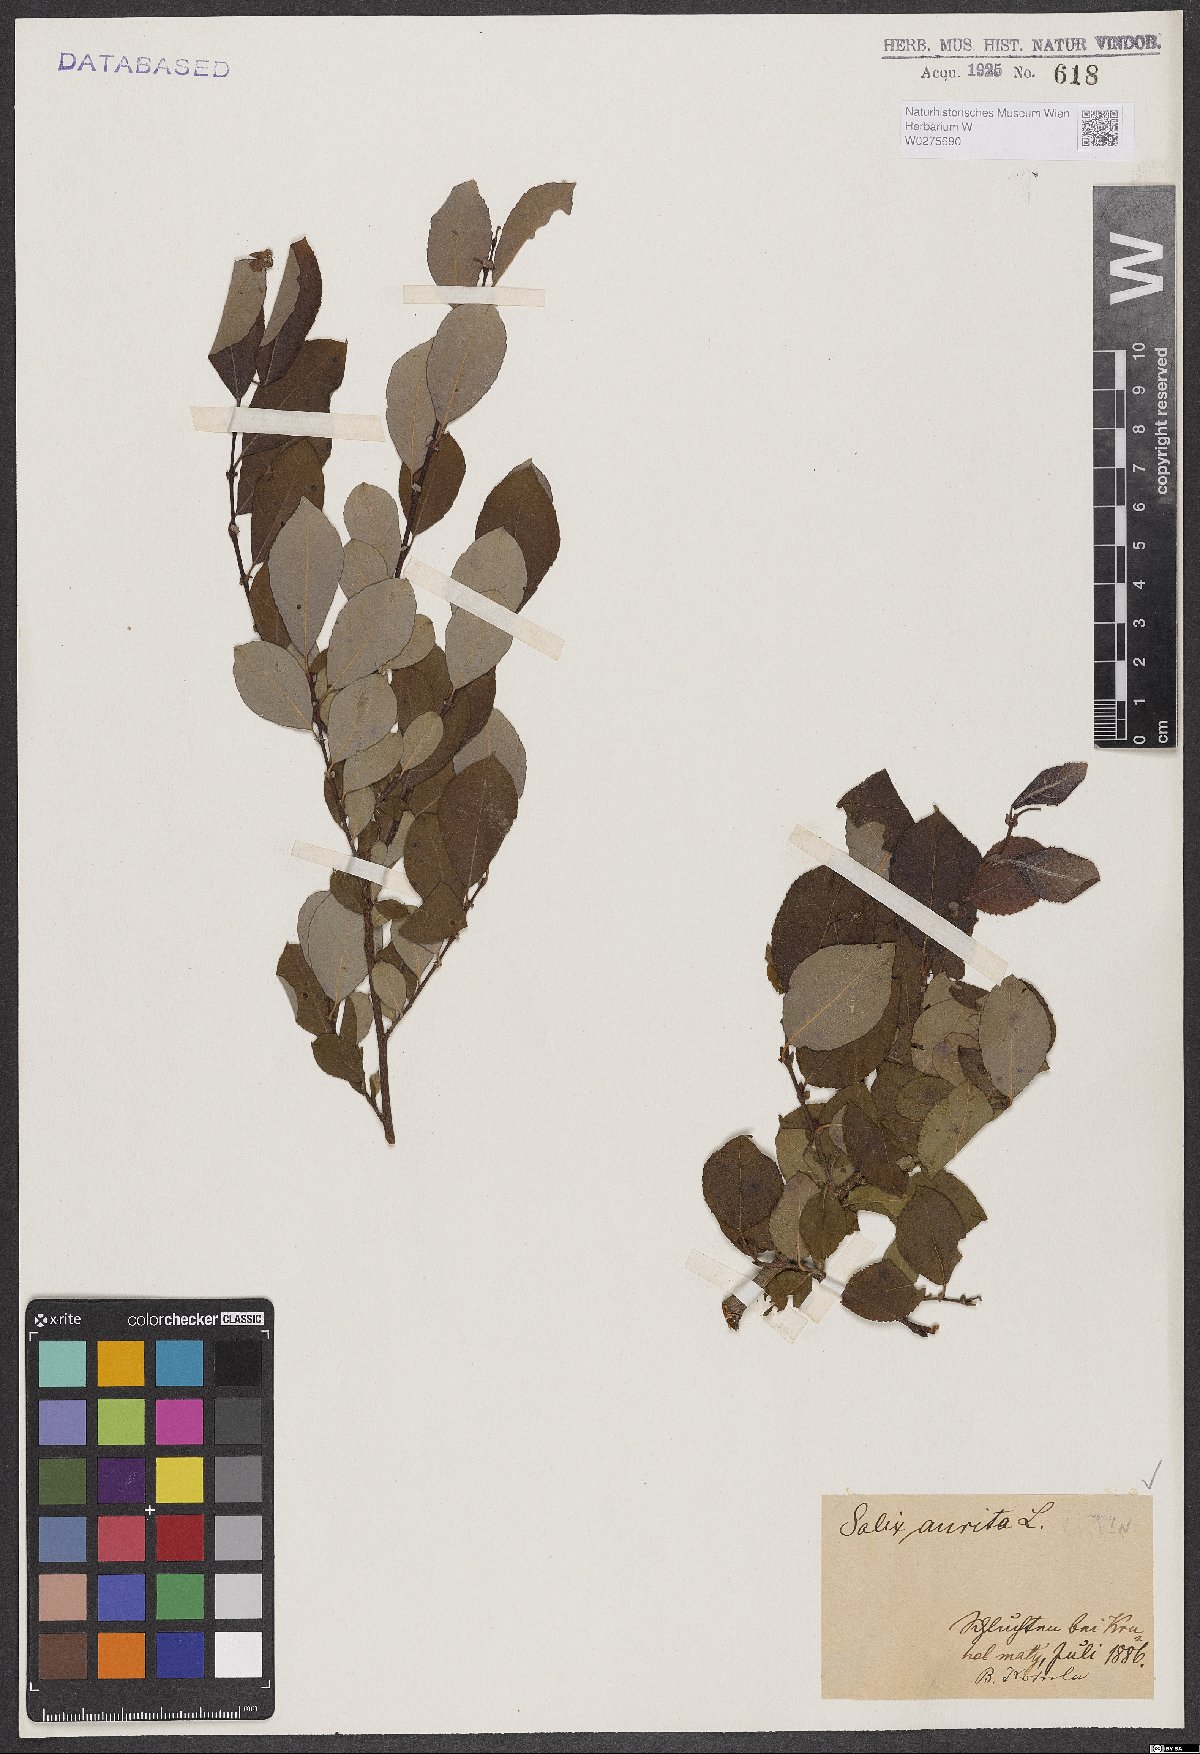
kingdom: Plantae
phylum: Tracheophyta
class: Magnoliopsida
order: Malpighiales
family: Salicaceae
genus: Salix
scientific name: Salix aurita
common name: Eared willow
